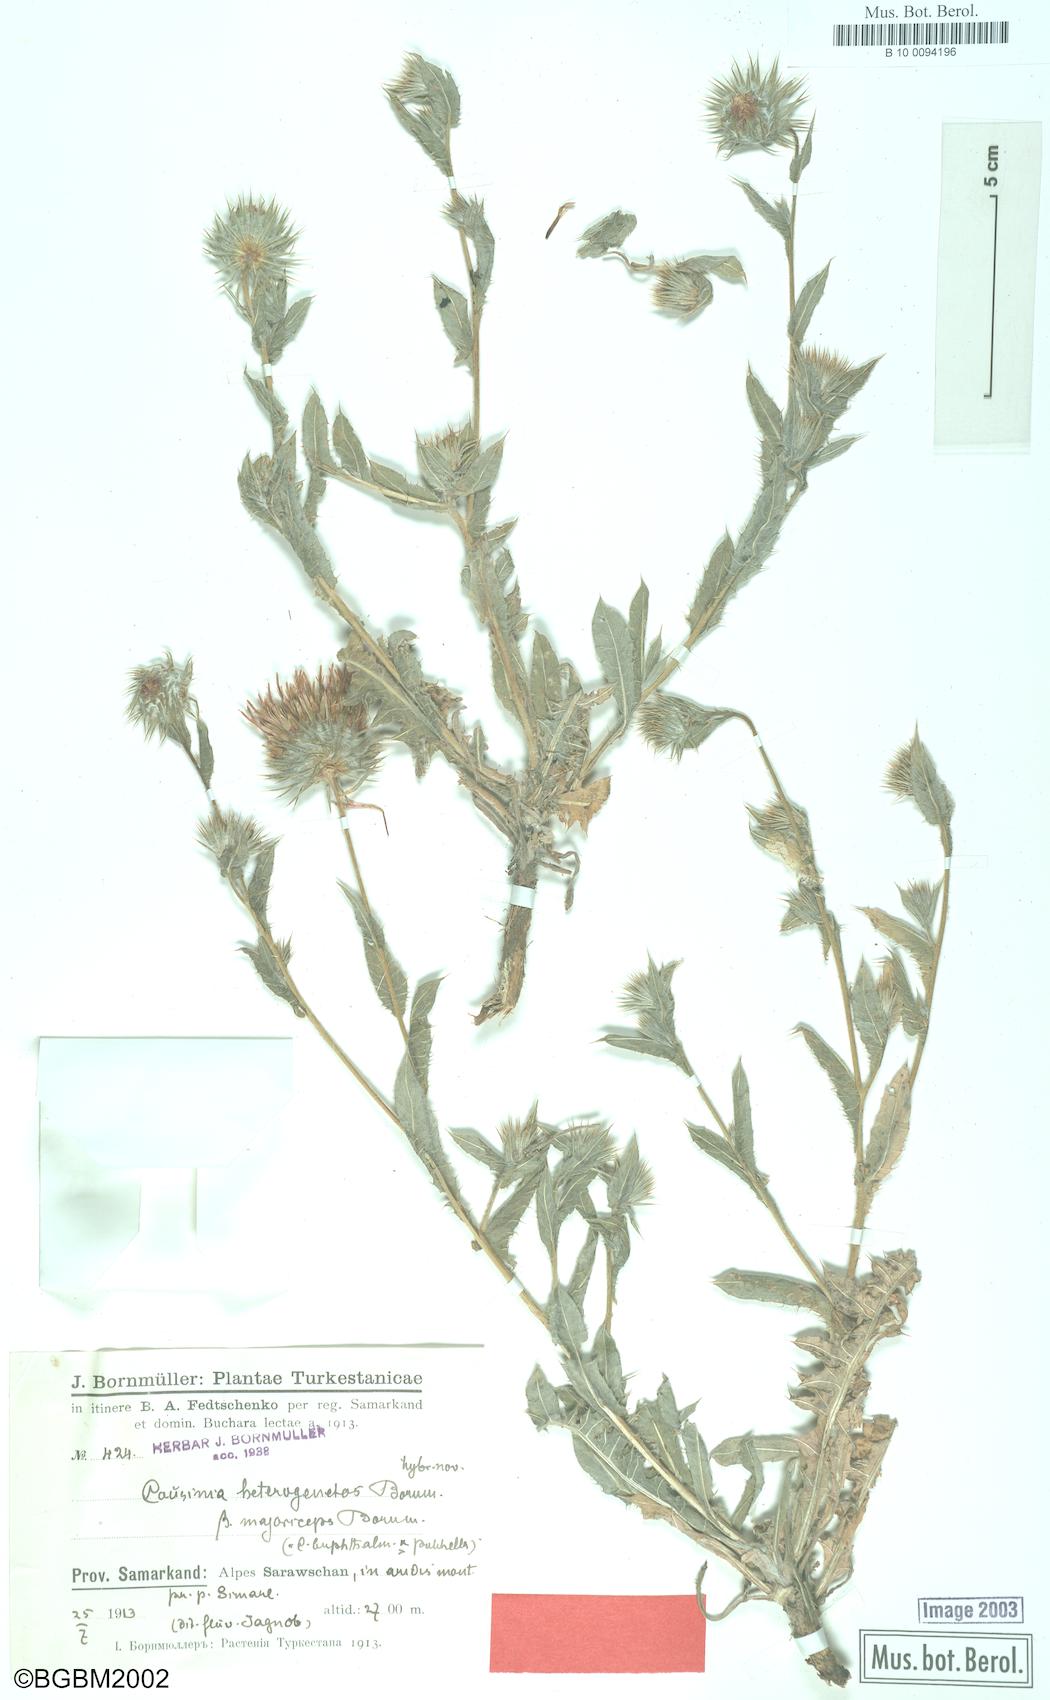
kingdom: Plantae
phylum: Tracheophyta
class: Magnoliopsida
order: Asterales
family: Asteraceae
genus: Cousinia
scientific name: Cousinia heterogenetos
